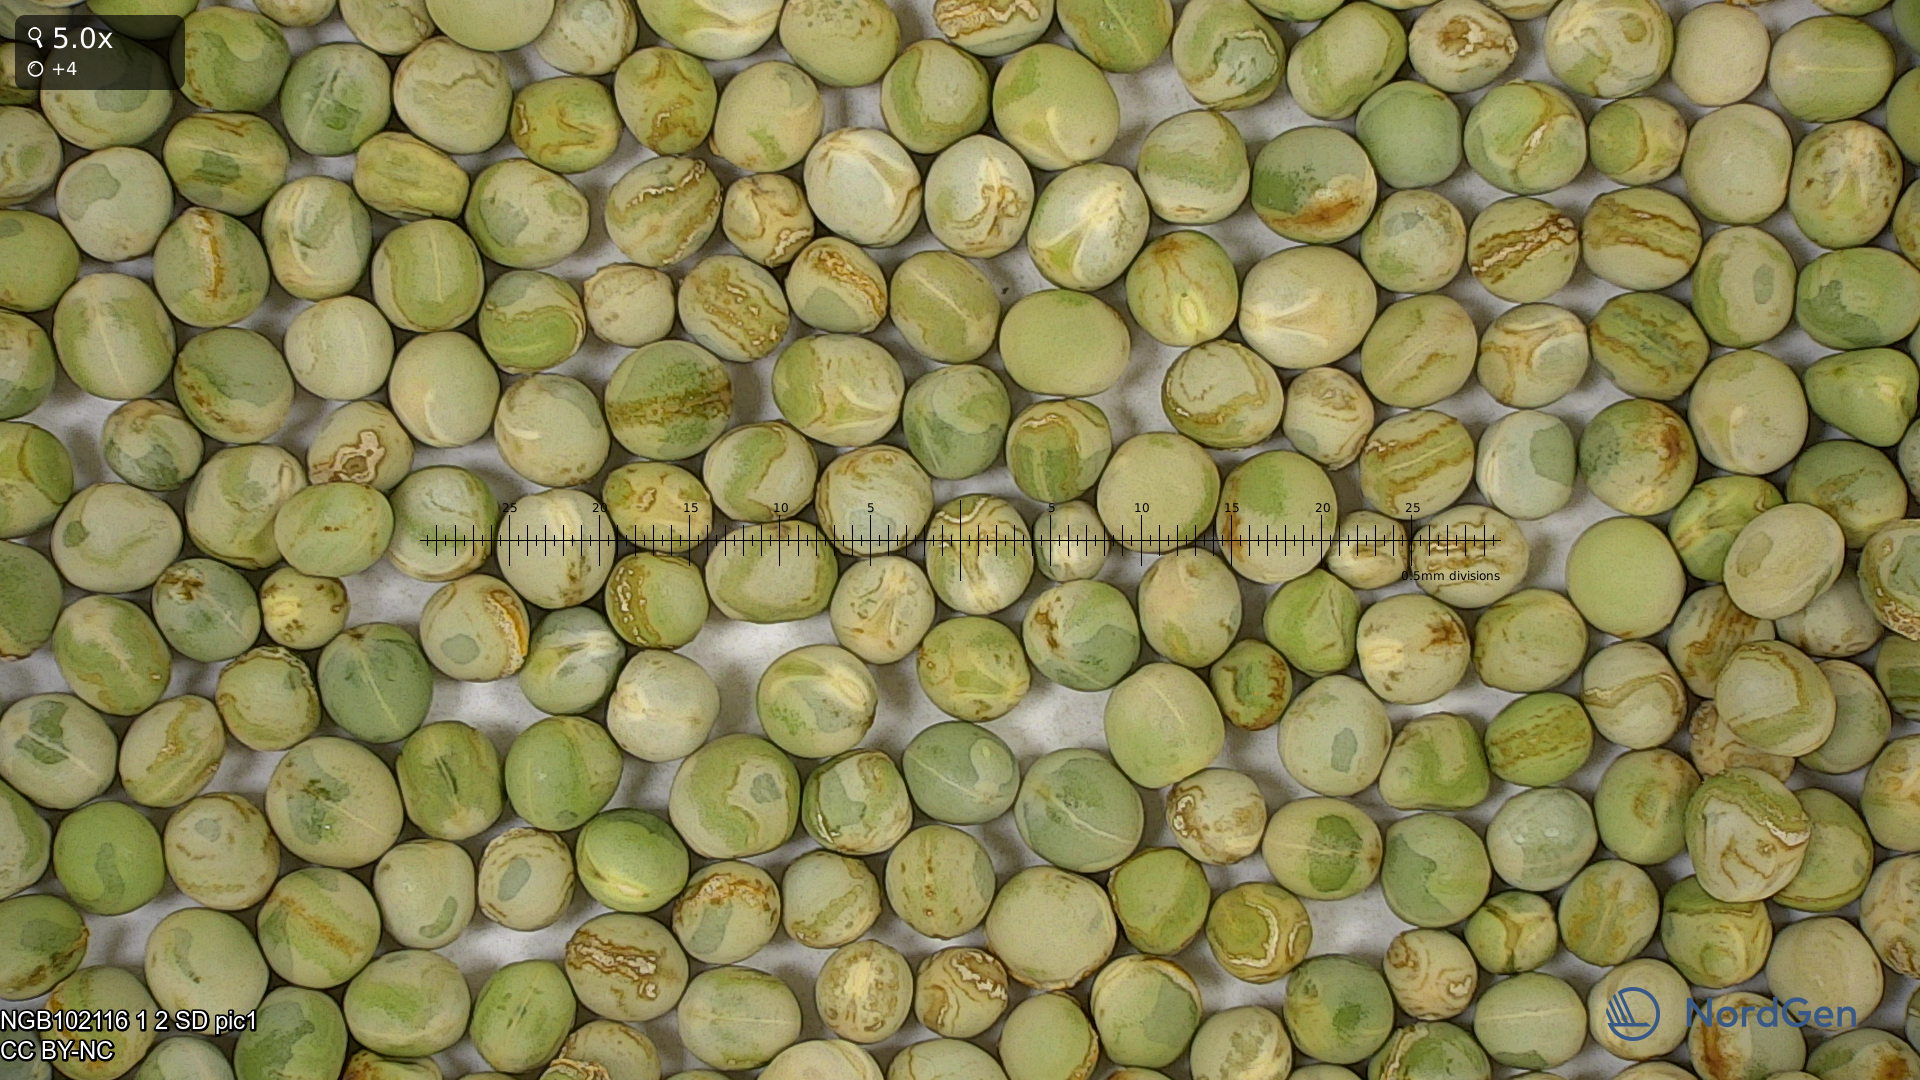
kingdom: Plantae
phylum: Tracheophyta
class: Magnoliopsida
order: Fabales
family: Fabaceae
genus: Lathyrus
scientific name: Lathyrus oleraceus
